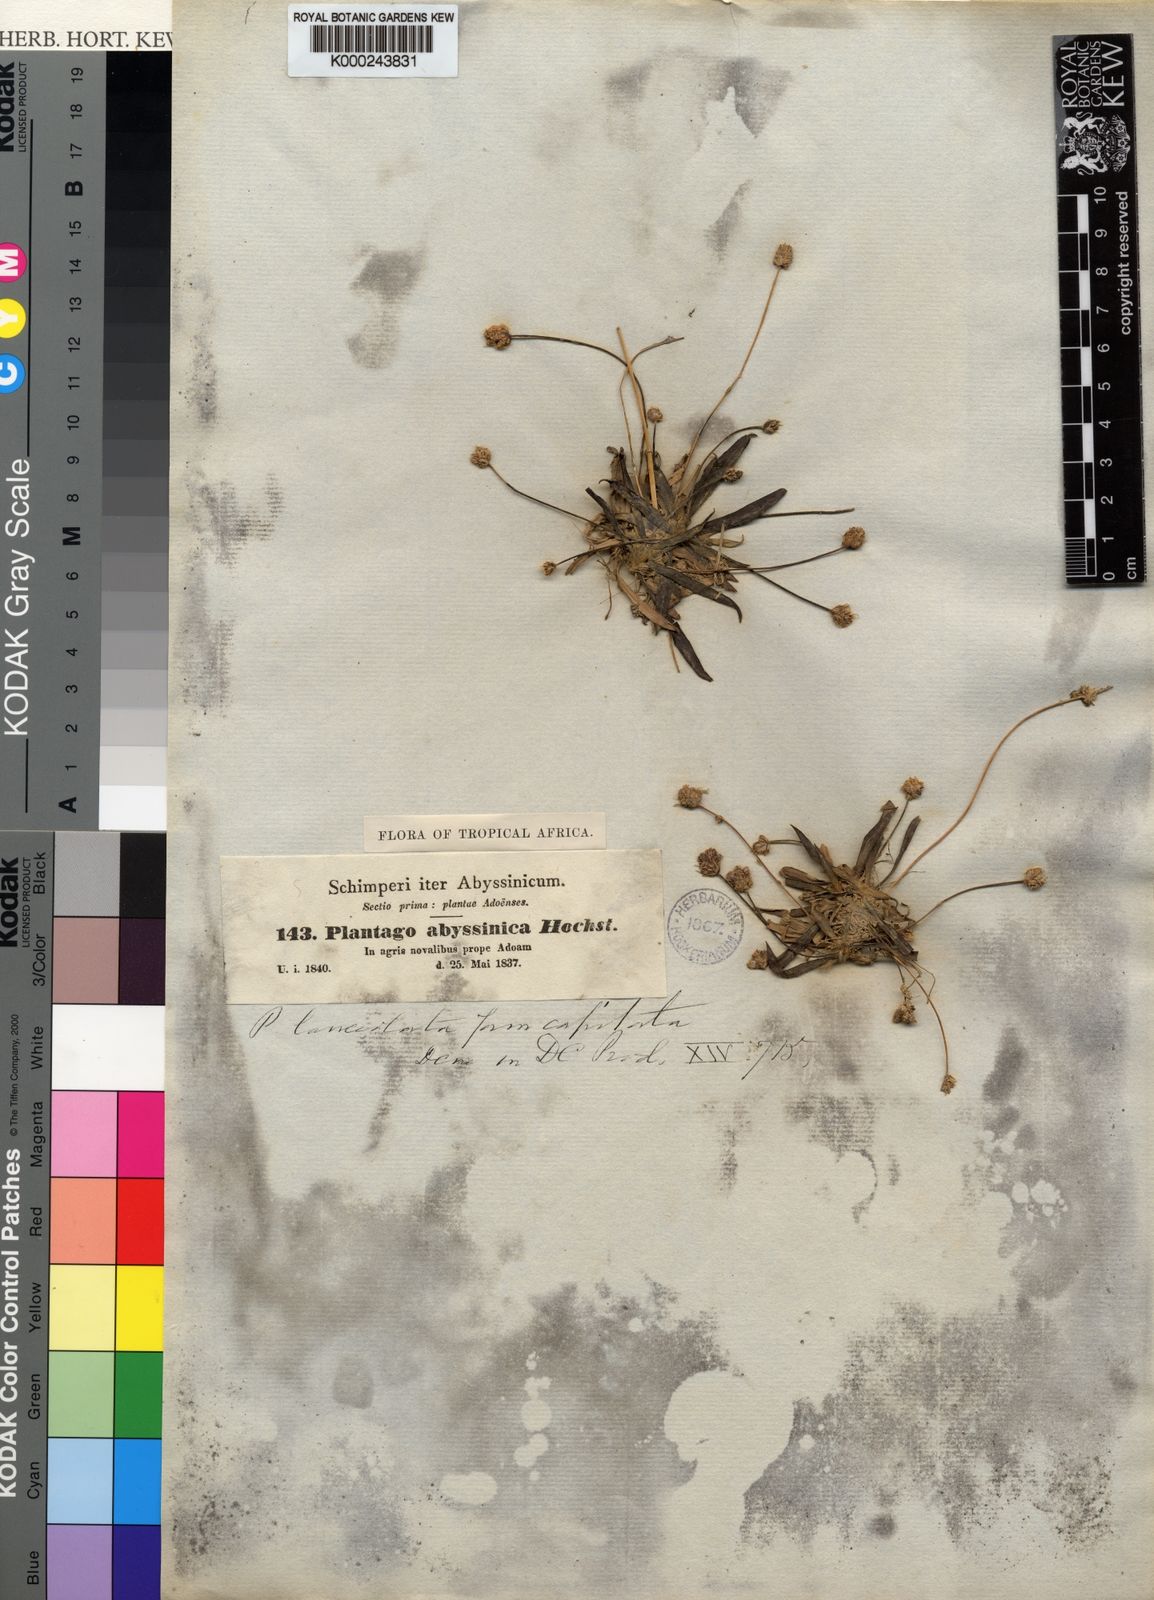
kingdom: Plantae
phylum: Tracheophyta
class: Magnoliopsida
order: Lamiales
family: Plantaginaceae
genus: Plantago
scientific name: Plantago lanceolata
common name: Ribwort plantain
